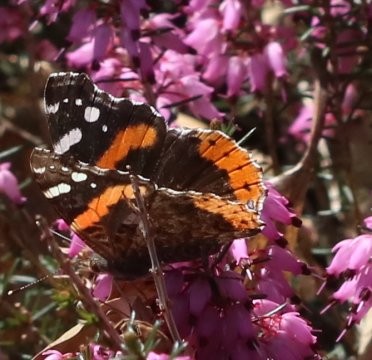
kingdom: Animalia
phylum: Arthropoda
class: Insecta
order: Lepidoptera
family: Nymphalidae
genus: Vanessa
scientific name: Vanessa atalanta
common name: Red Admiral
